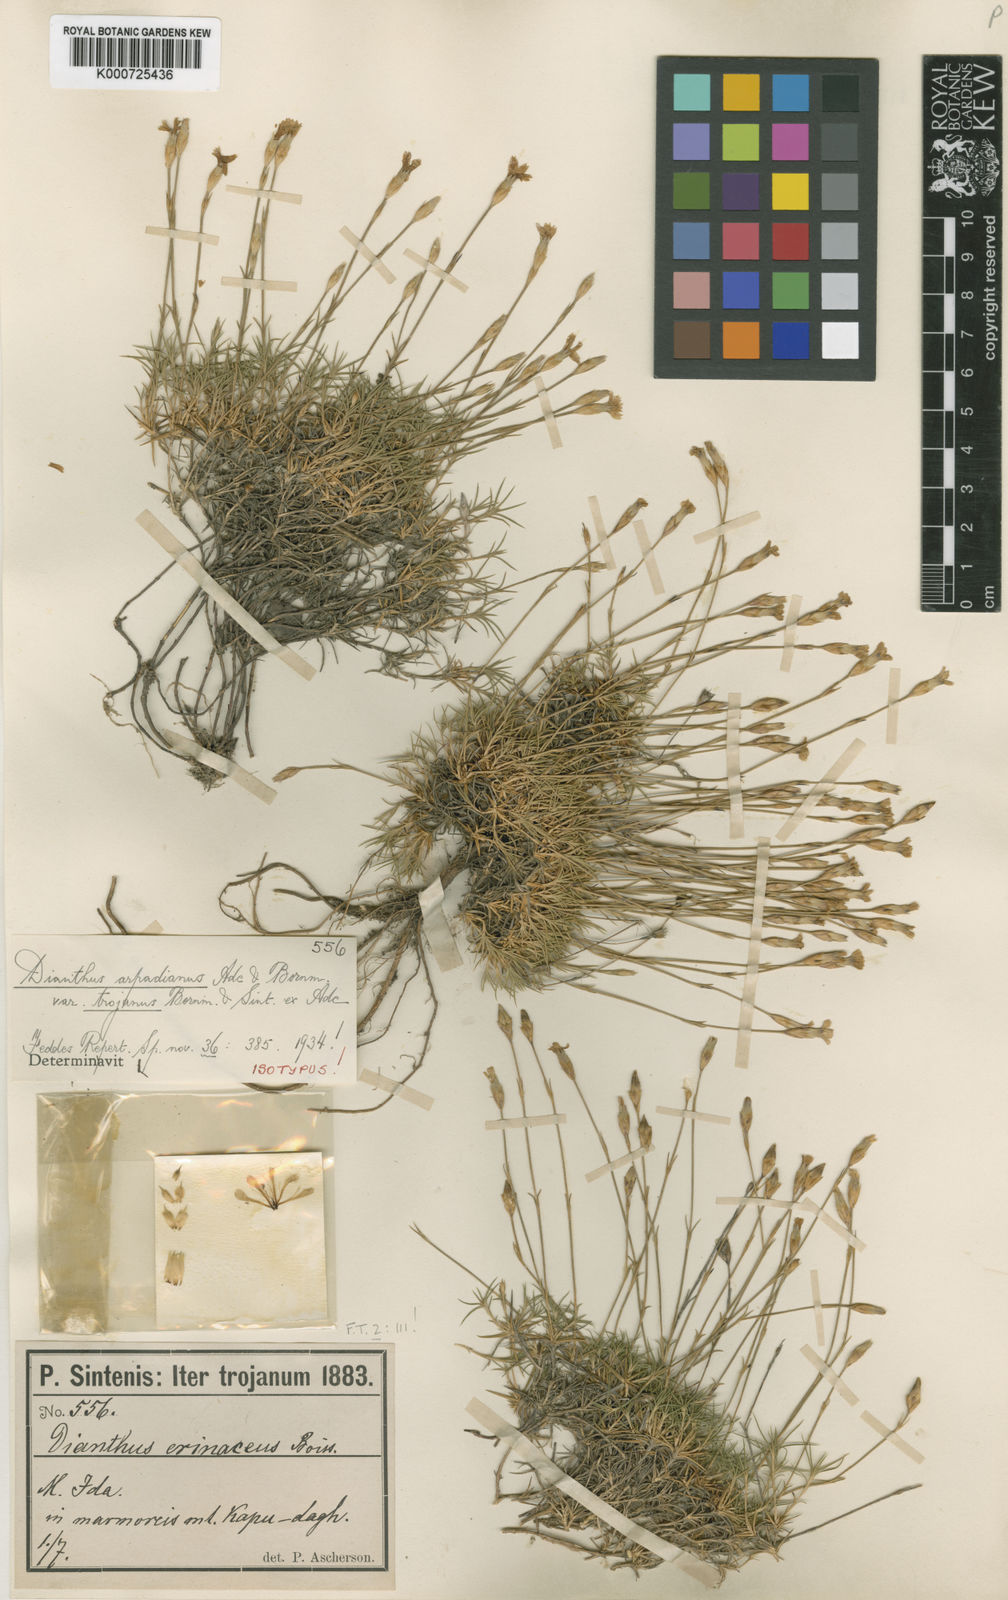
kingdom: Plantae
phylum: Tracheophyta
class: Magnoliopsida
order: Caryophyllales
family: Caryophyllaceae
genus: Dianthus
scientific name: Dianthus arpadianus
